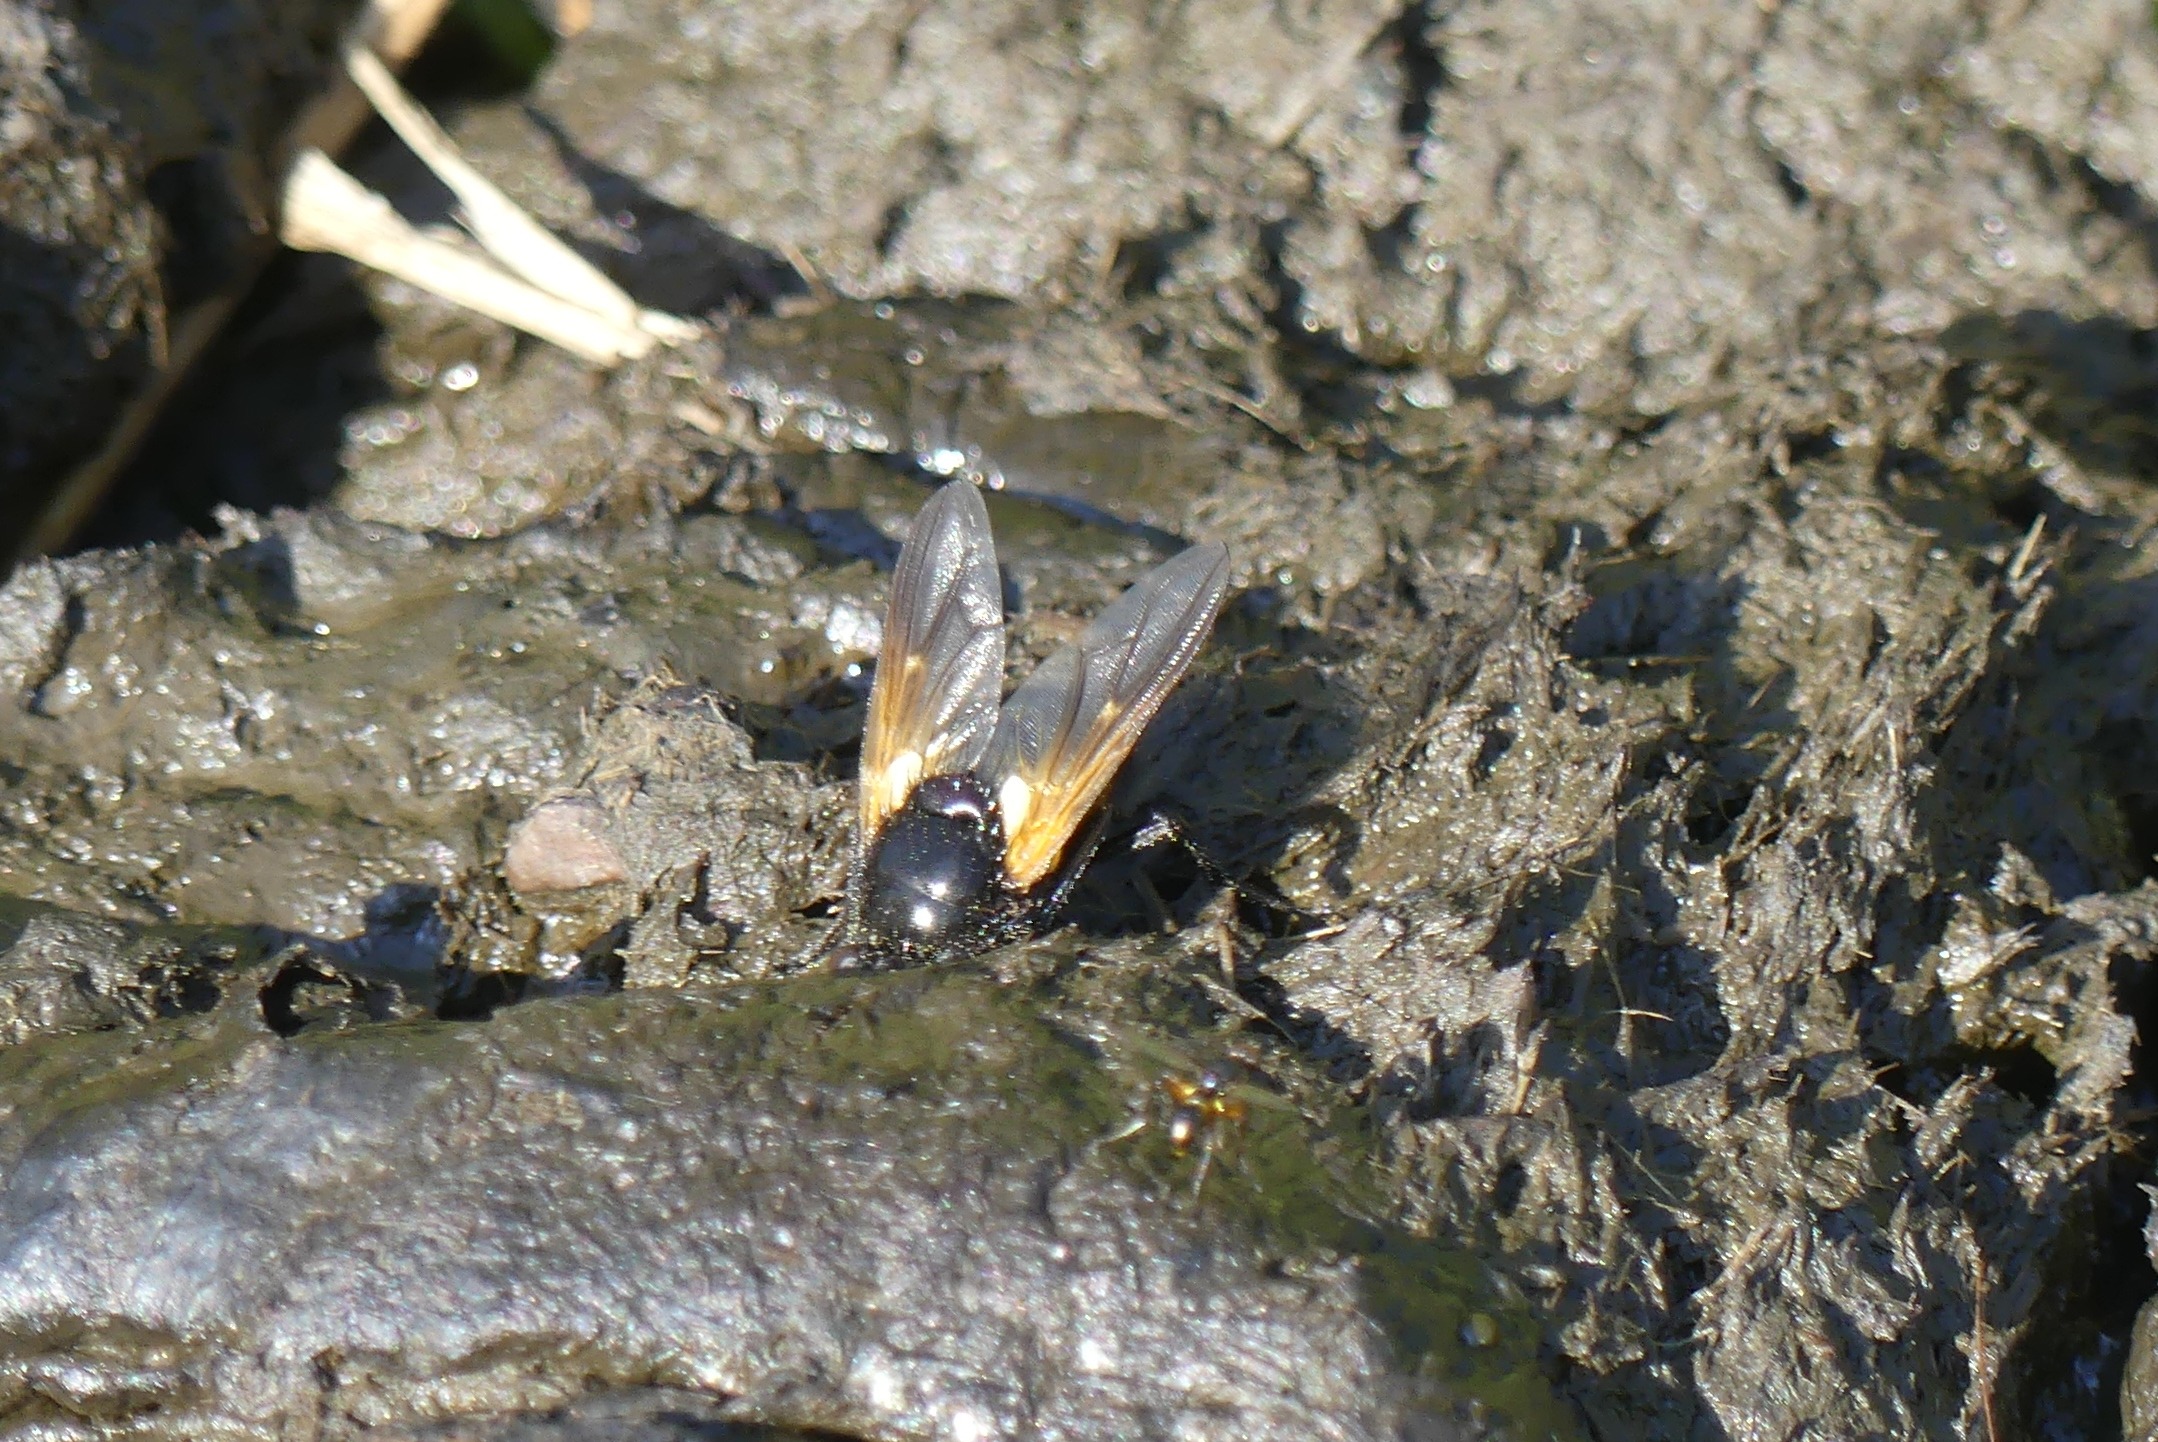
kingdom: Animalia
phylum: Arthropoda
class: Insecta
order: Diptera
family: Muscidae
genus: Mesembrina
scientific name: Mesembrina meridiana
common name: Gulvinget flue
